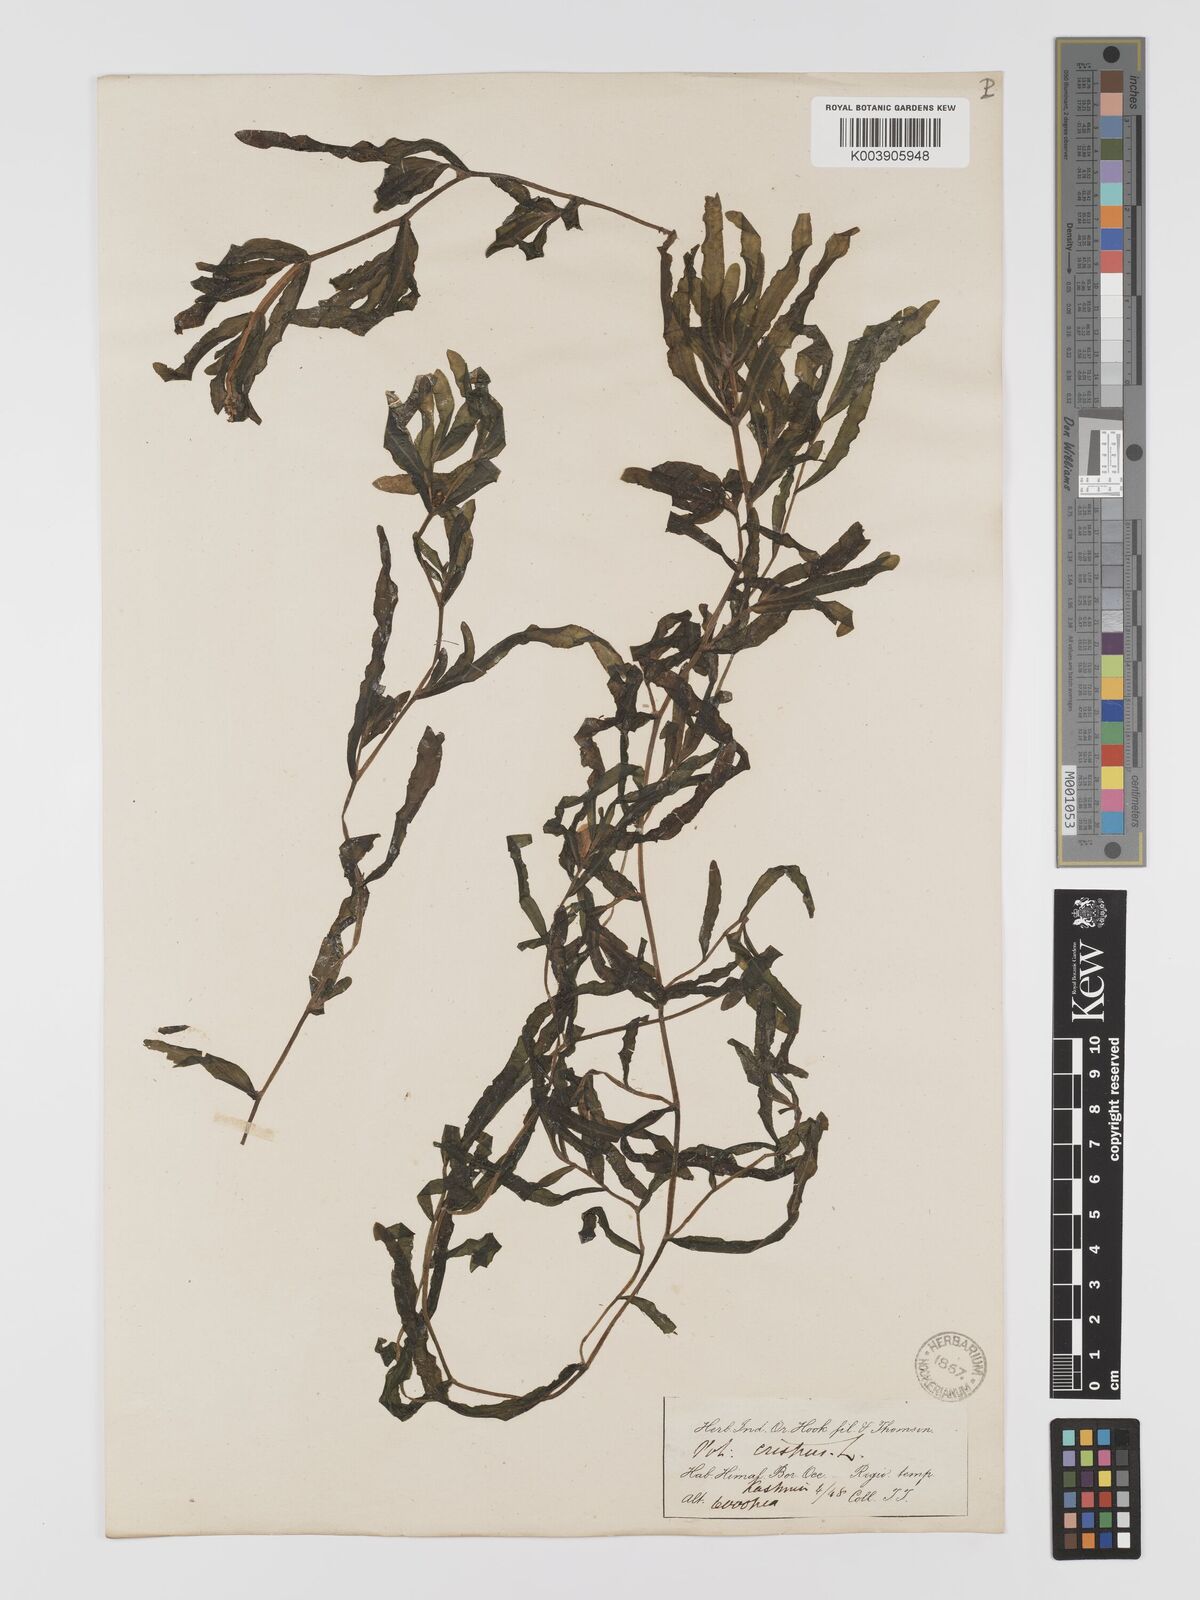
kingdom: Plantae
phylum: Tracheophyta
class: Liliopsida
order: Alismatales
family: Potamogetonaceae
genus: Potamogeton
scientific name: Potamogeton crispus
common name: Curled pondweed
